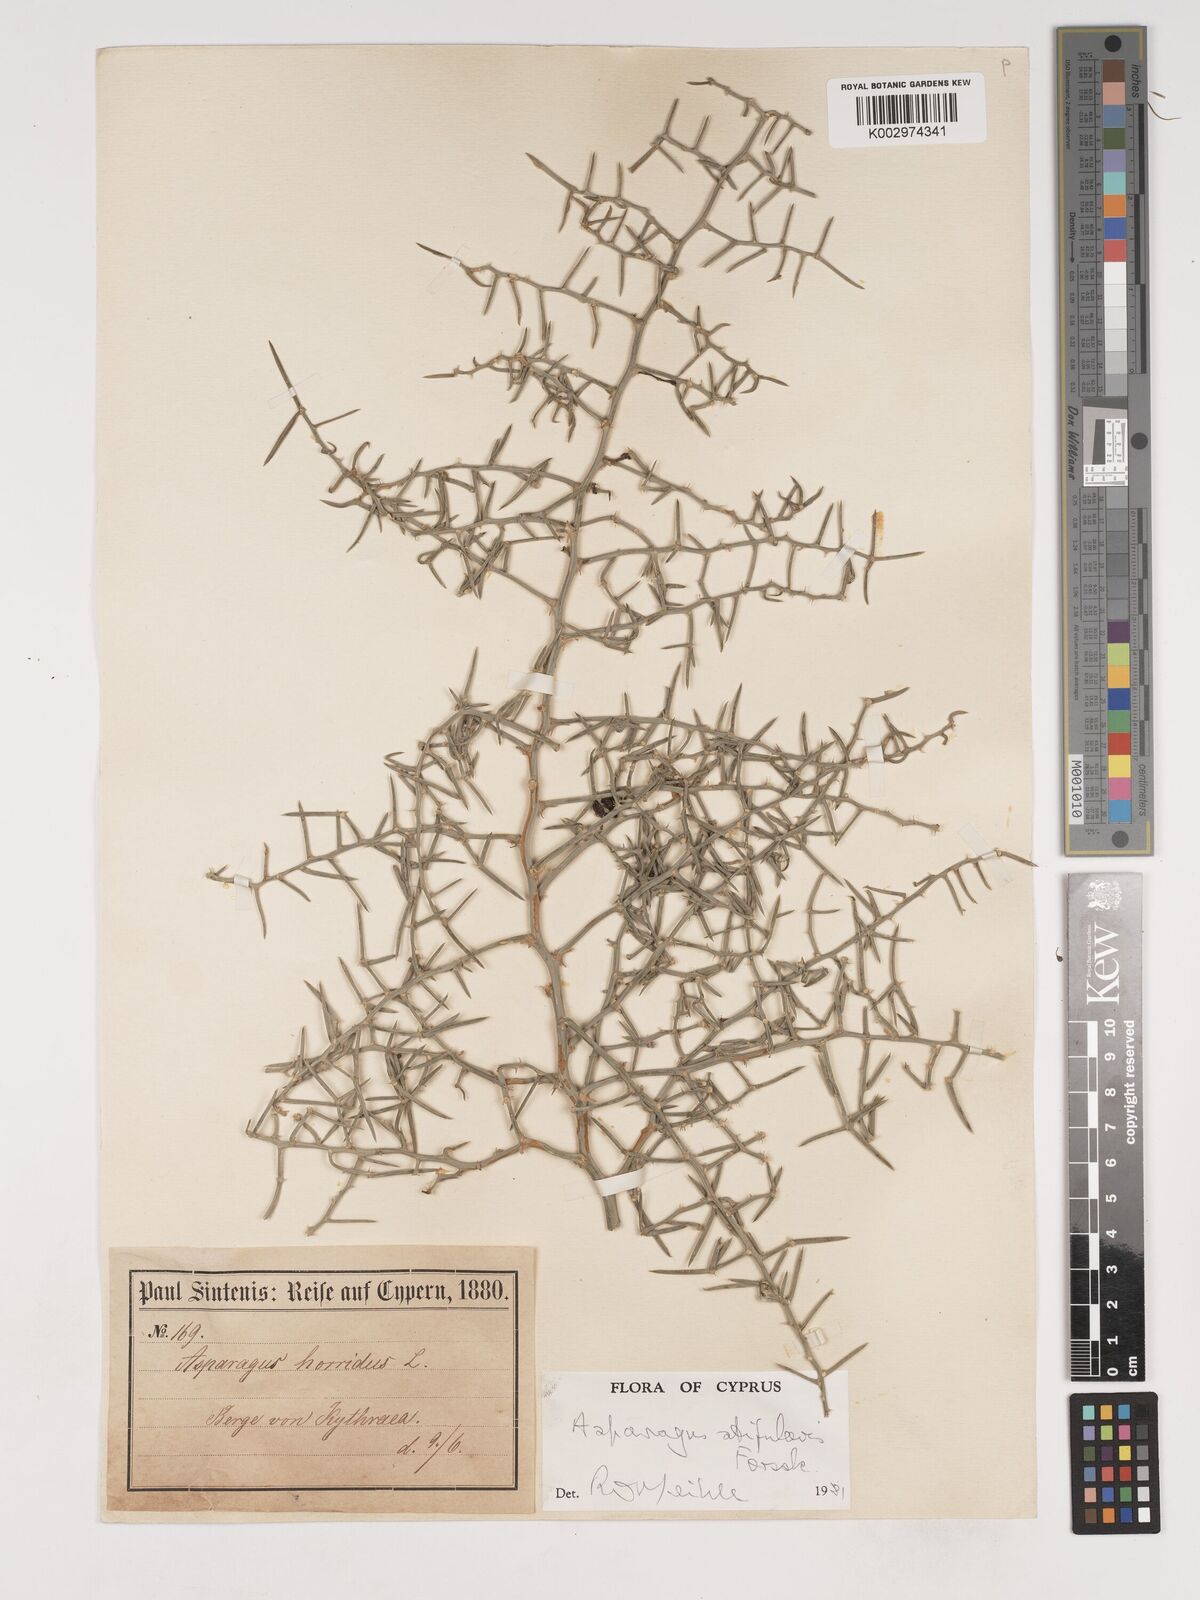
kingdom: Plantae
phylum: Tracheophyta
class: Liliopsida
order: Asparagales
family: Asparagaceae
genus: Asparagus
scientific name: Asparagus horridus
